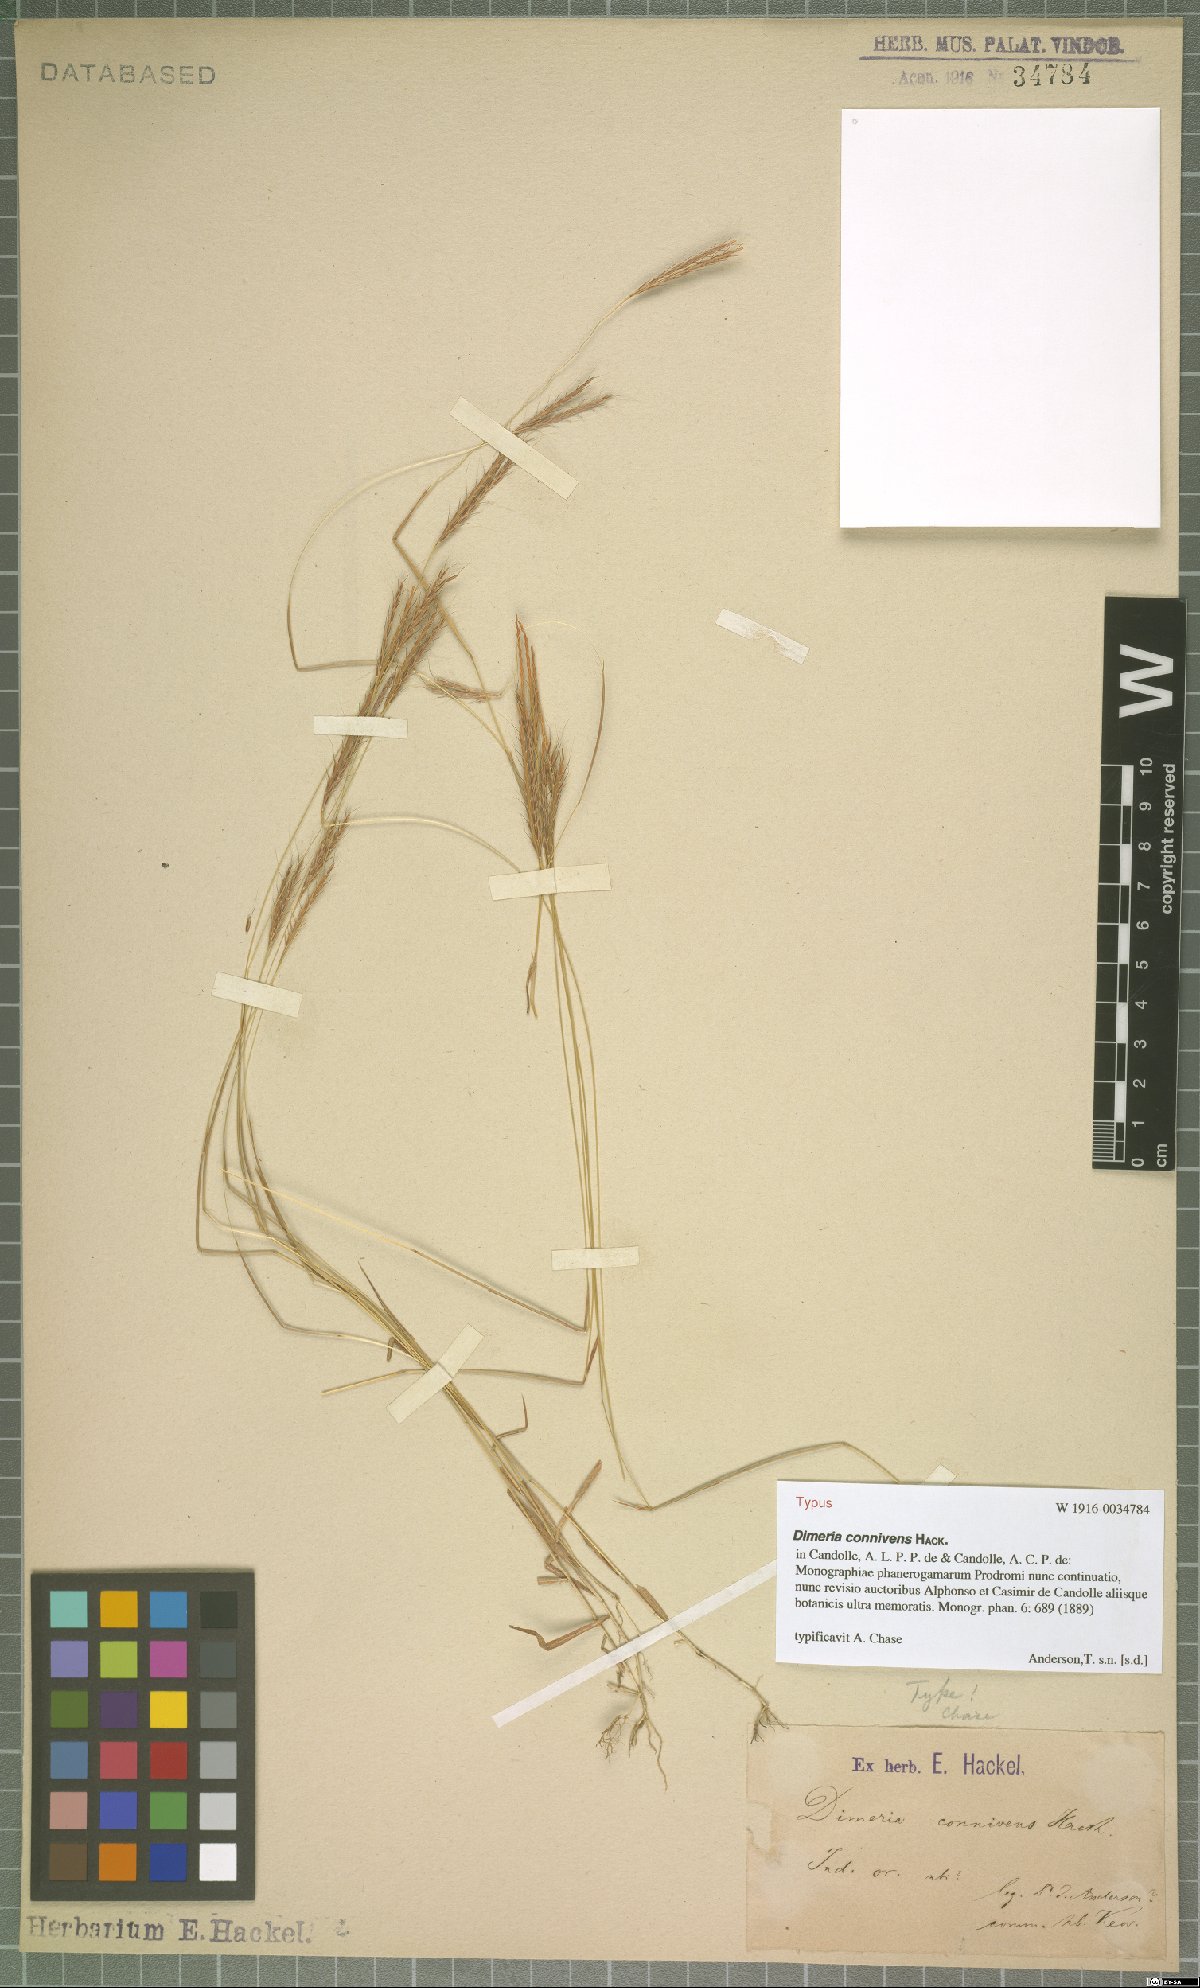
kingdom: Plantae
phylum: Tracheophyta
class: Liliopsida
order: Poales
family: Poaceae
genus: Dimeria
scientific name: Dimeria connivens
